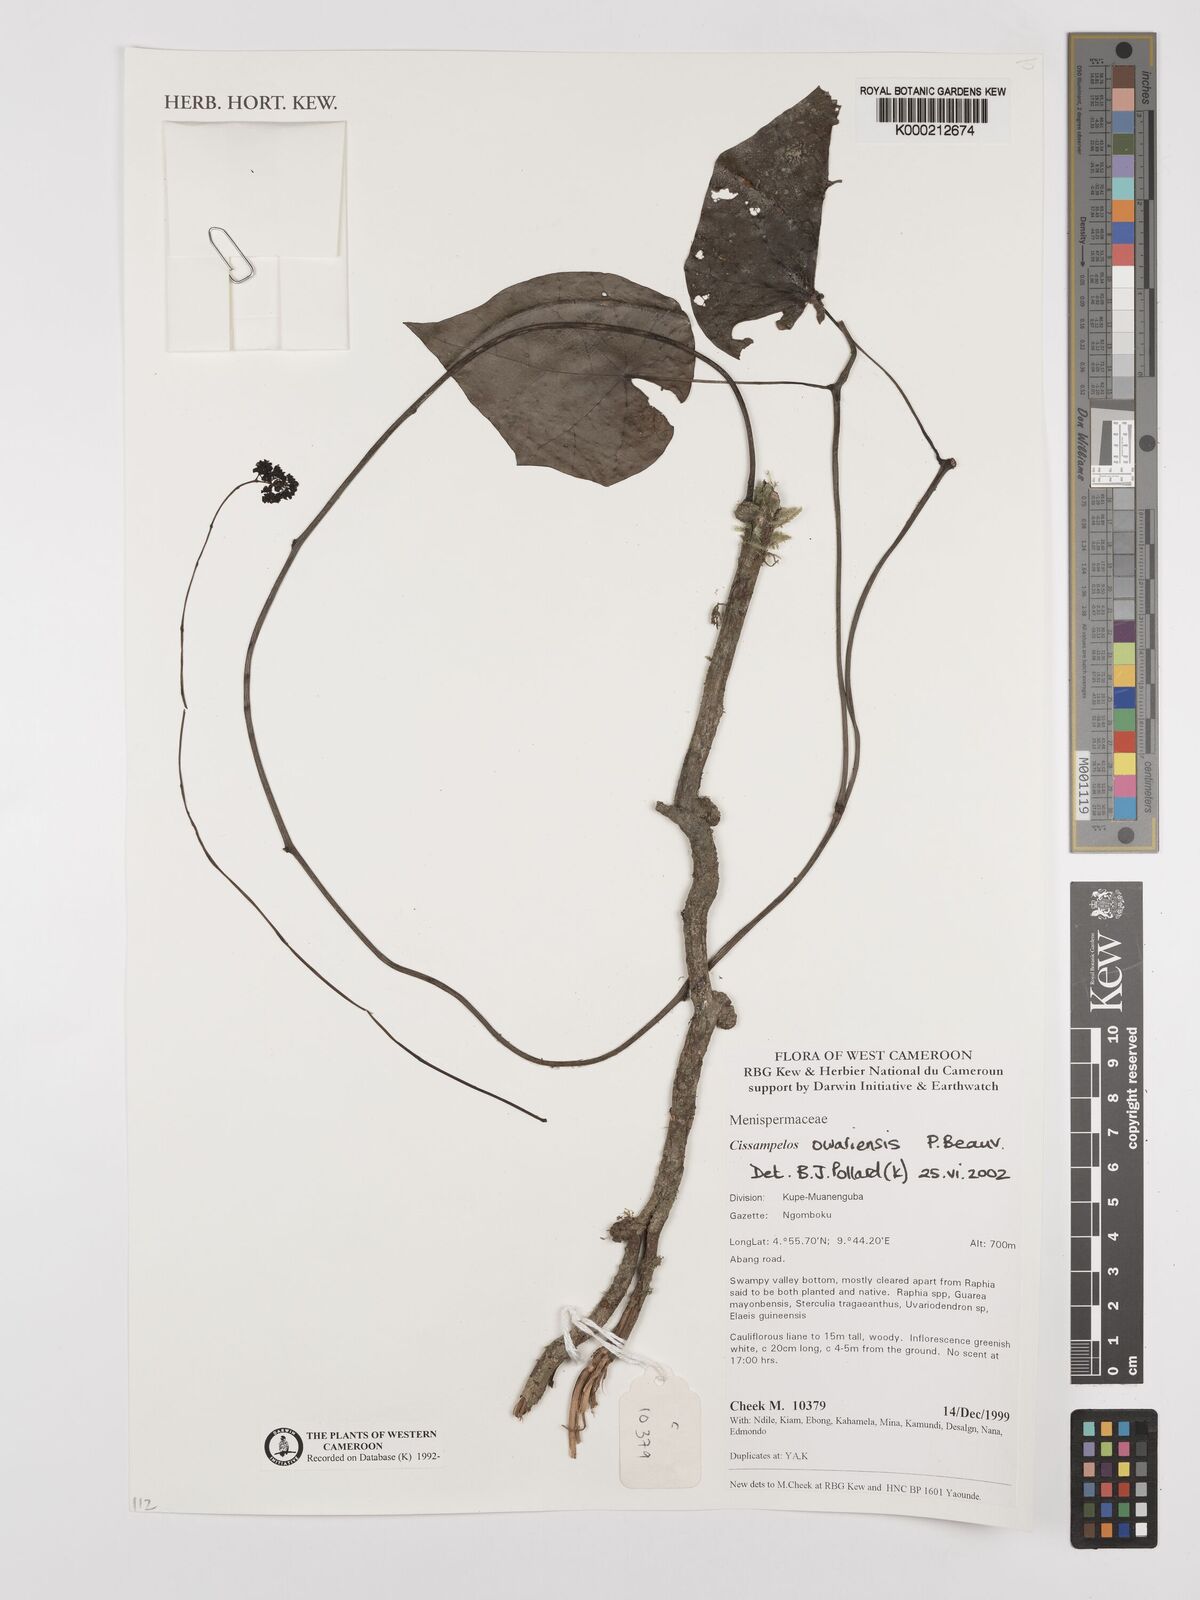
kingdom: Plantae
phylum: Tracheophyta
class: Magnoliopsida
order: Ranunculales
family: Menispermaceae
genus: Cissampelos
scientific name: Cissampelos owariensis
